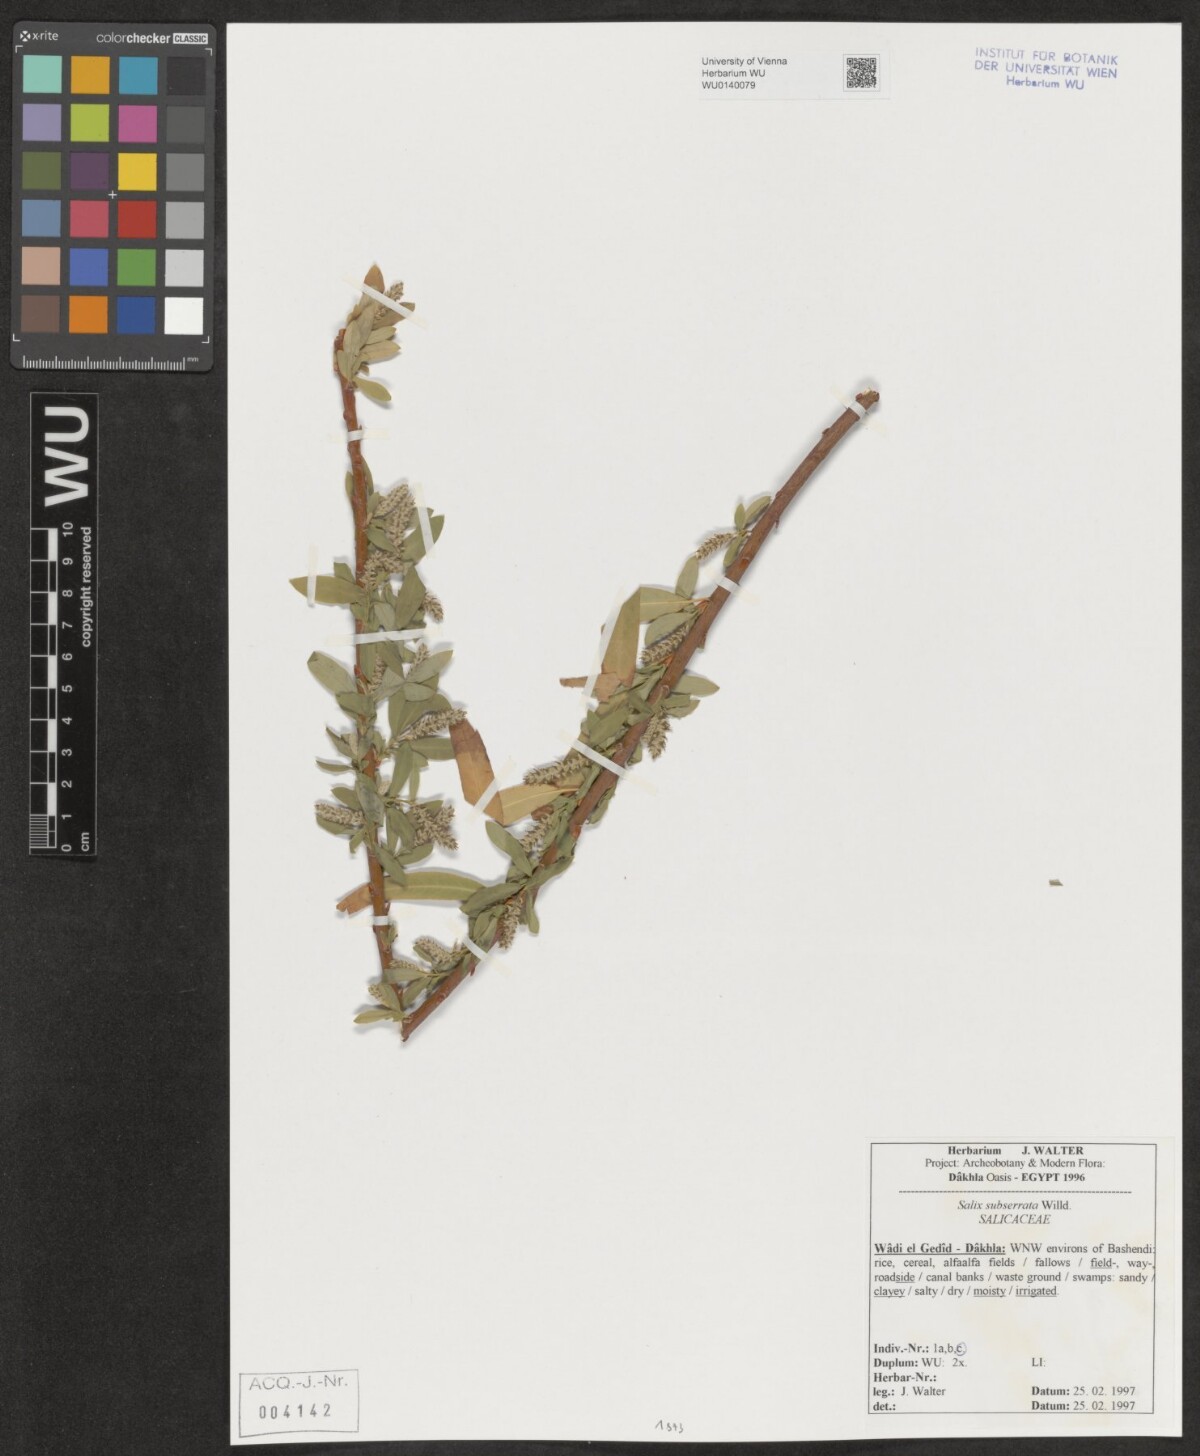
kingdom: Plantae
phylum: Tracheophyta
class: Magnoliopsida
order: Malpighiales
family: Salicaceae
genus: Salix
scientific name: Salix mucronata
